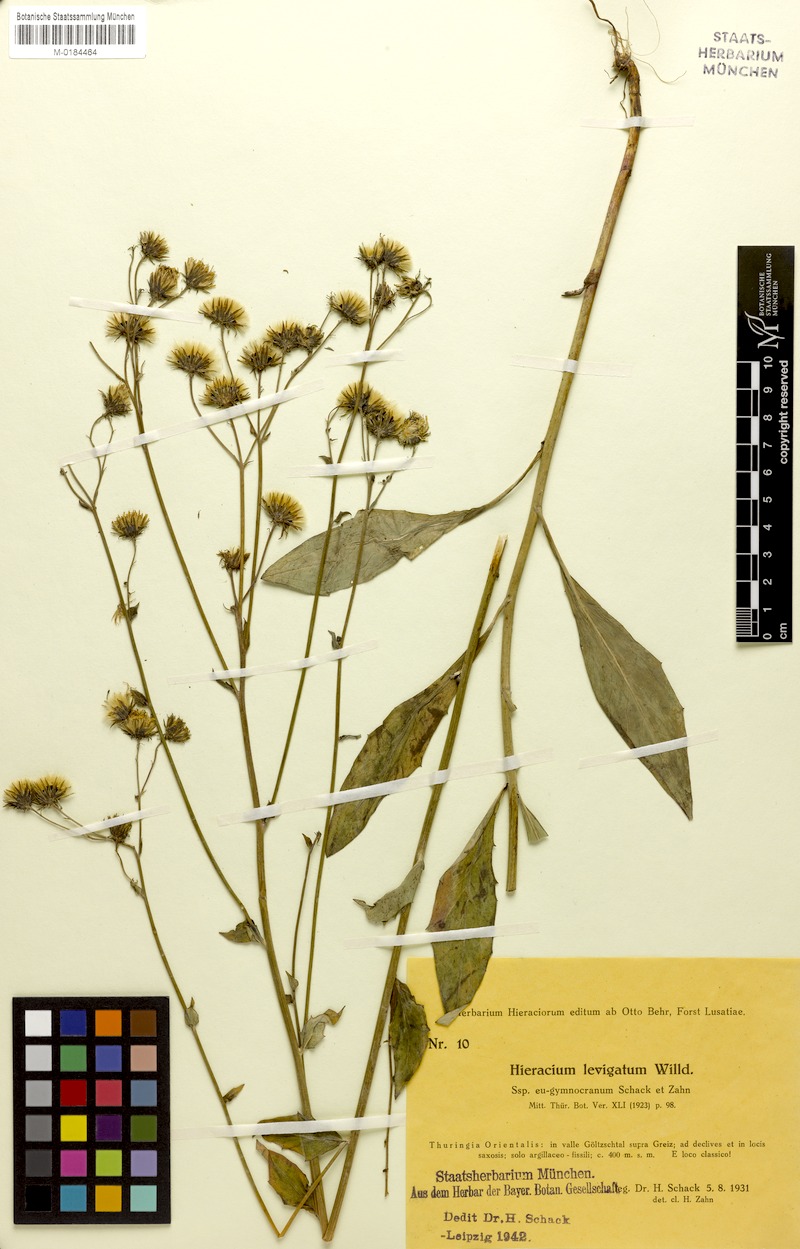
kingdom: Plantae
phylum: Tracheophyta
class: Magnoliopsida
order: Asterales
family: Asteraceae
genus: Hieracium
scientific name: Hieracium laevigatum
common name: Smooth hawkweed
